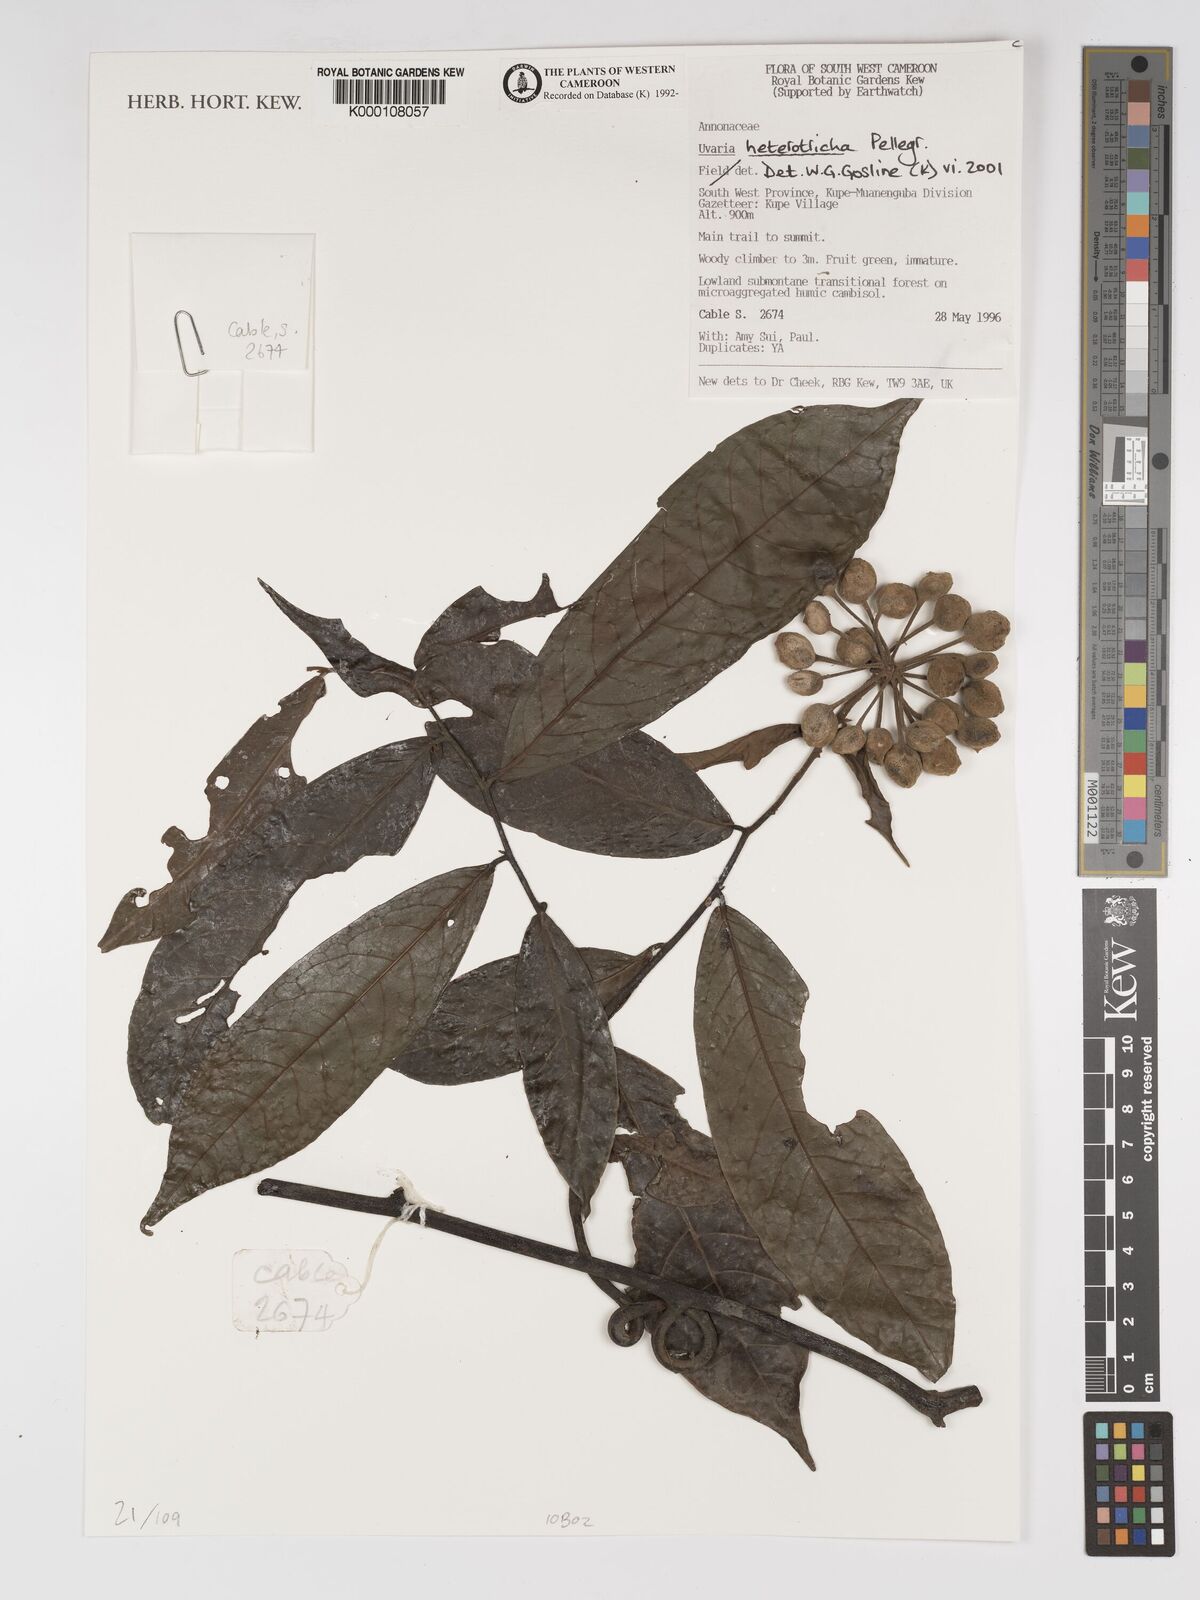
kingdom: Plantae
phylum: Tracheophyta
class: Magnoliopsida
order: Magnoliales
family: Annonaceae
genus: Uvaria
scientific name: Uvaria heterotricha
